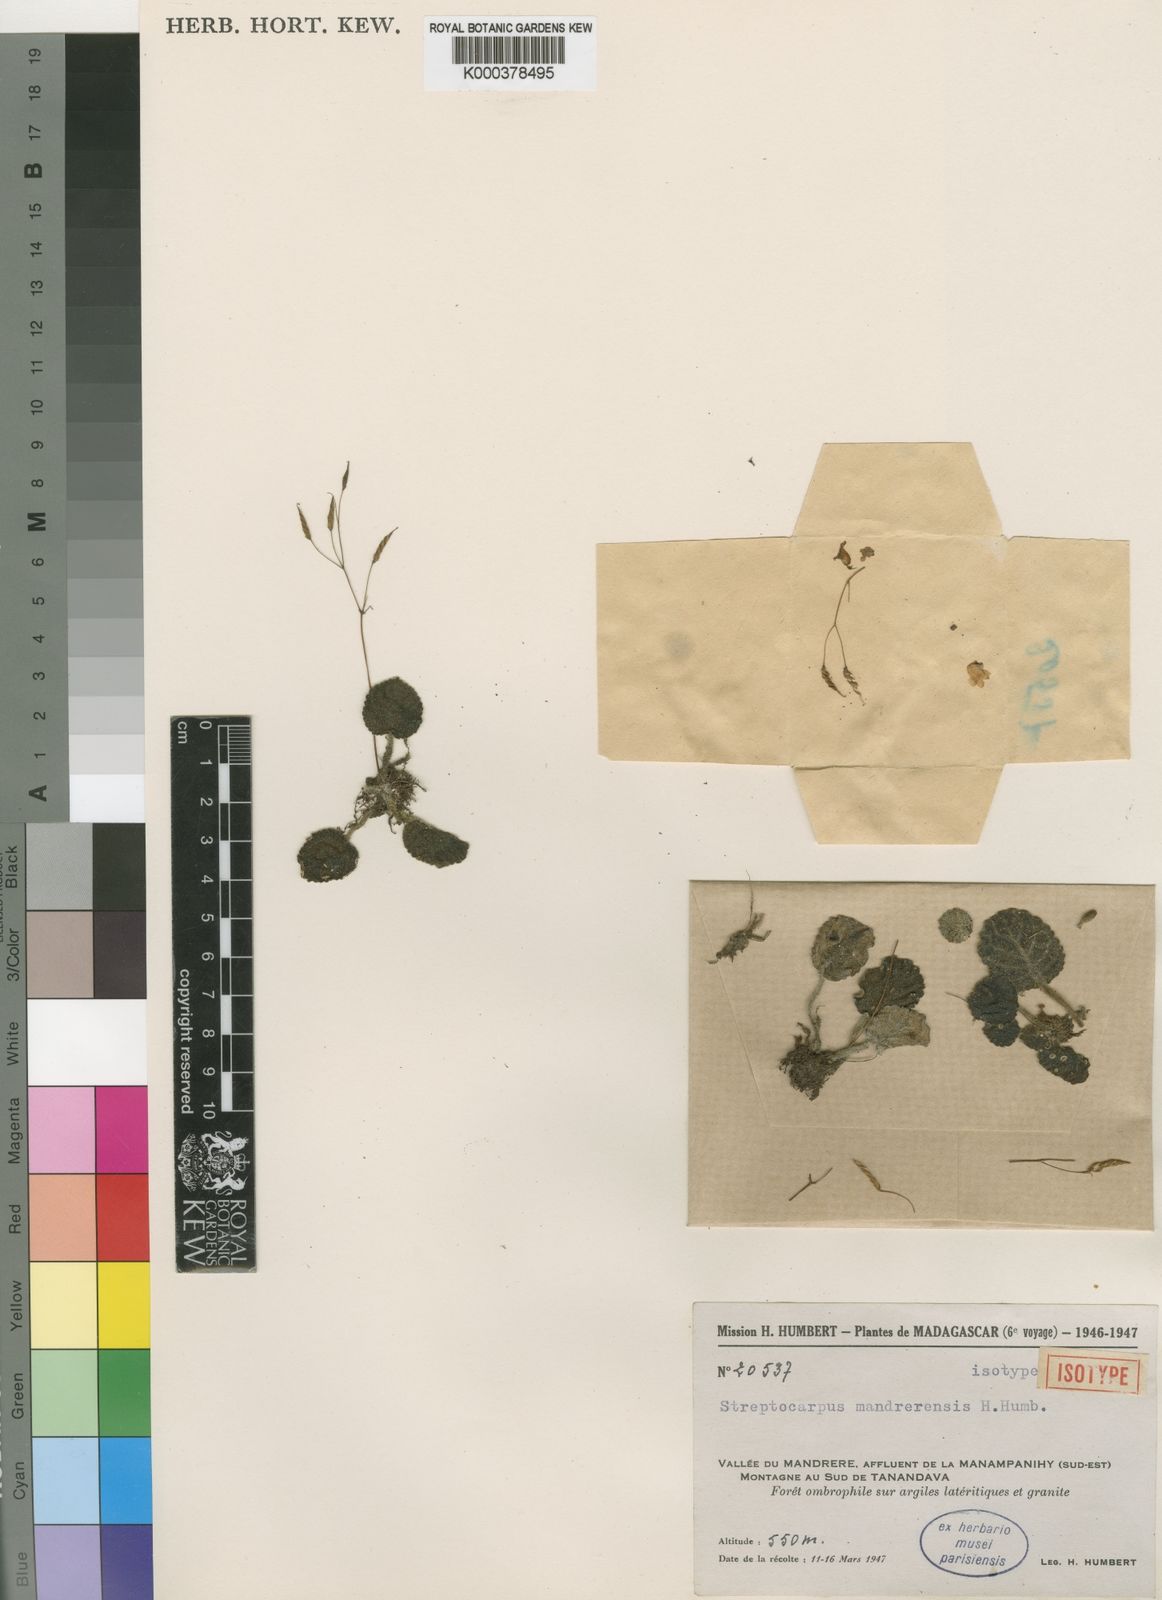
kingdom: Plantae
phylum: Tracheophyta
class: Magnoliopsida
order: Lamiales
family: Gesneriaceae
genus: Streptocarpus
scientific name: Streptocarpus mandrerensis
